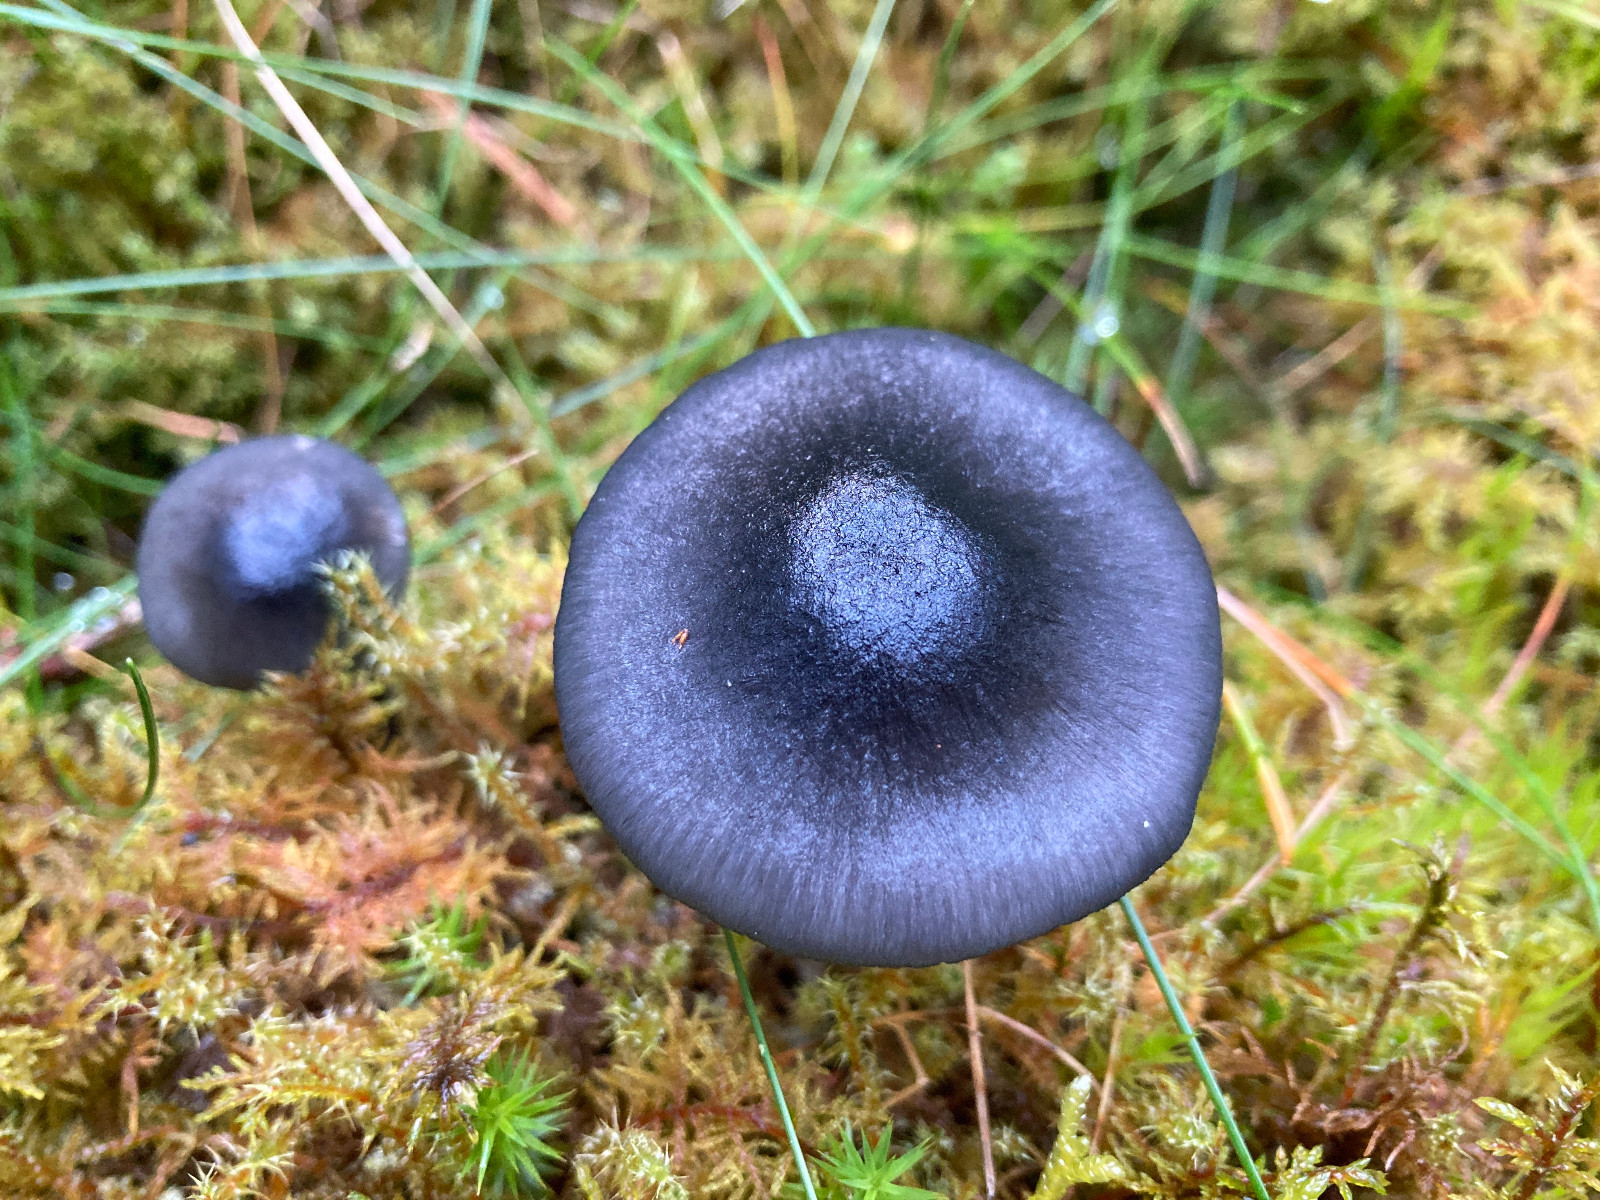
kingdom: Fungi
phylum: Basidiomycota
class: Agaricomycetes
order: Agaricales
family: Entolomataceae
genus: Entocybe
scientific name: Entocybe nitida
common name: stålblå rødblad
